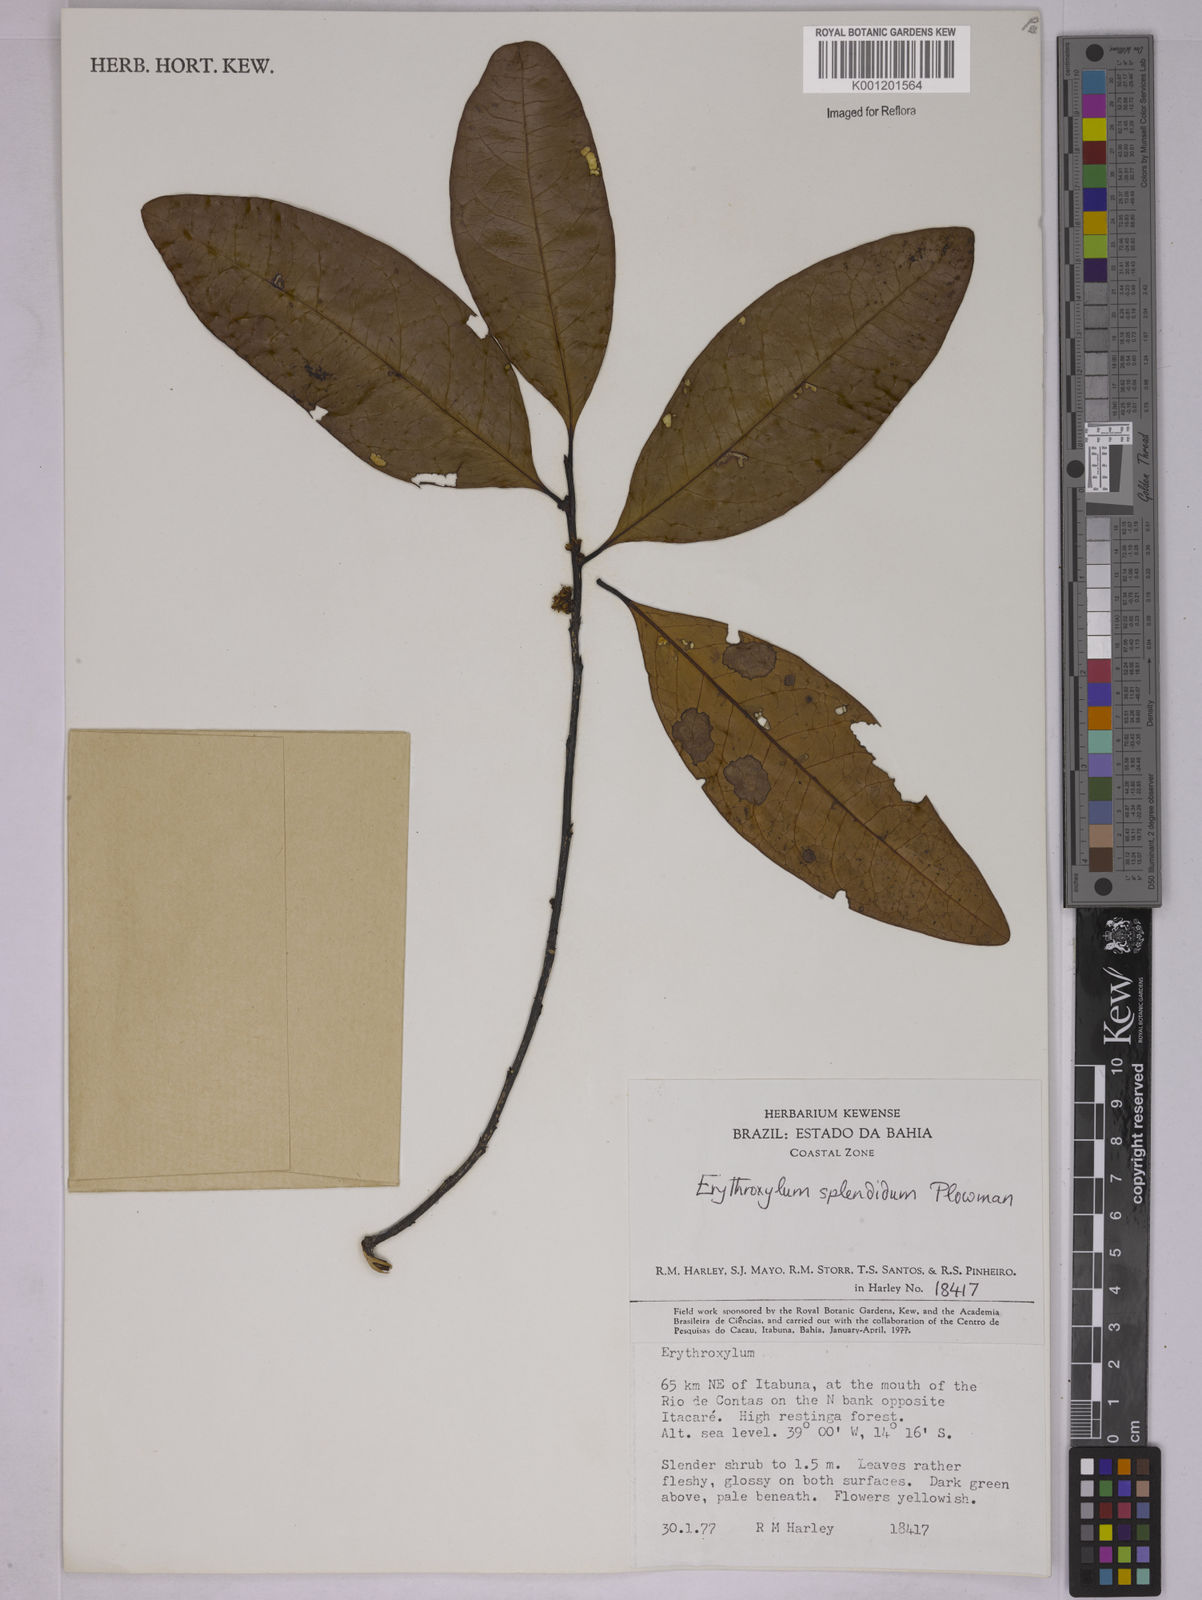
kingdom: Plantae
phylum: Tracheophyta
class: Magnoliopsida
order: Malpighiales
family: Erythroxylaceae
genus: Erythroxylum
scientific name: Erythroxylum splendidum
